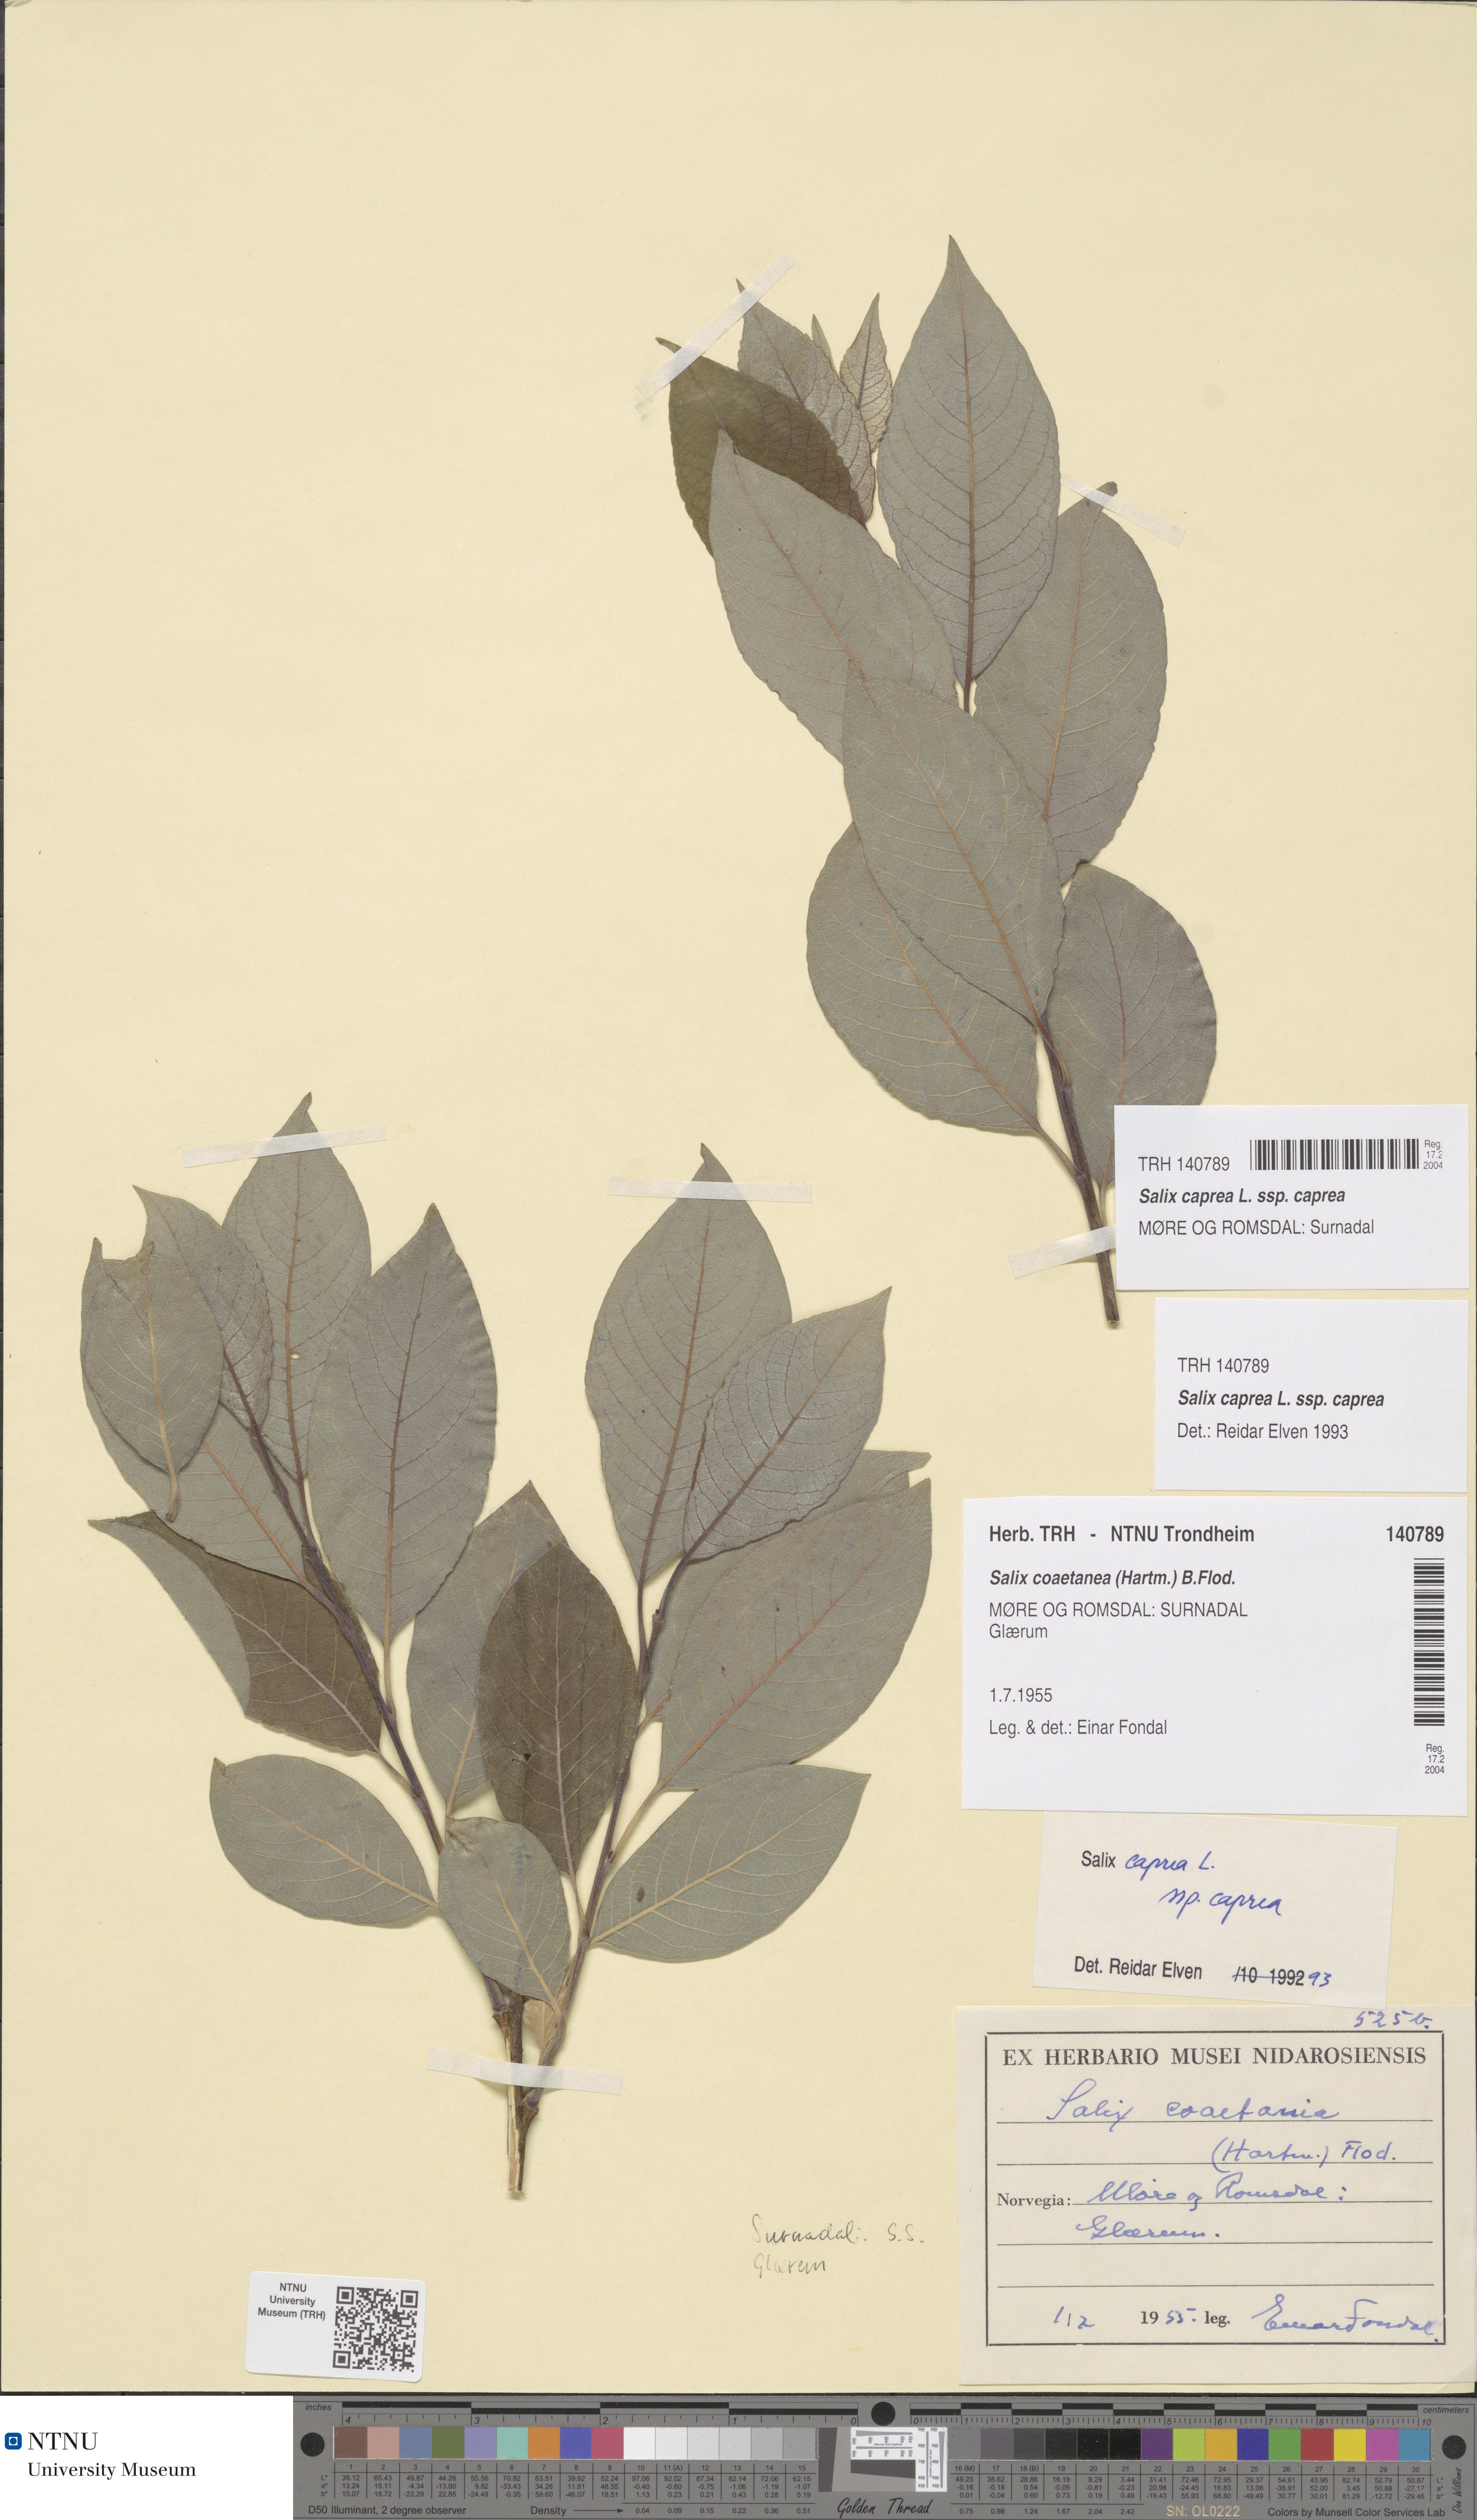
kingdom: Plantae
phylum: Tracheophyta
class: Magnoliopsida
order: Malpighiales
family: Salicaceae
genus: Salix
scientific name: Salix caprea
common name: Goat willow
